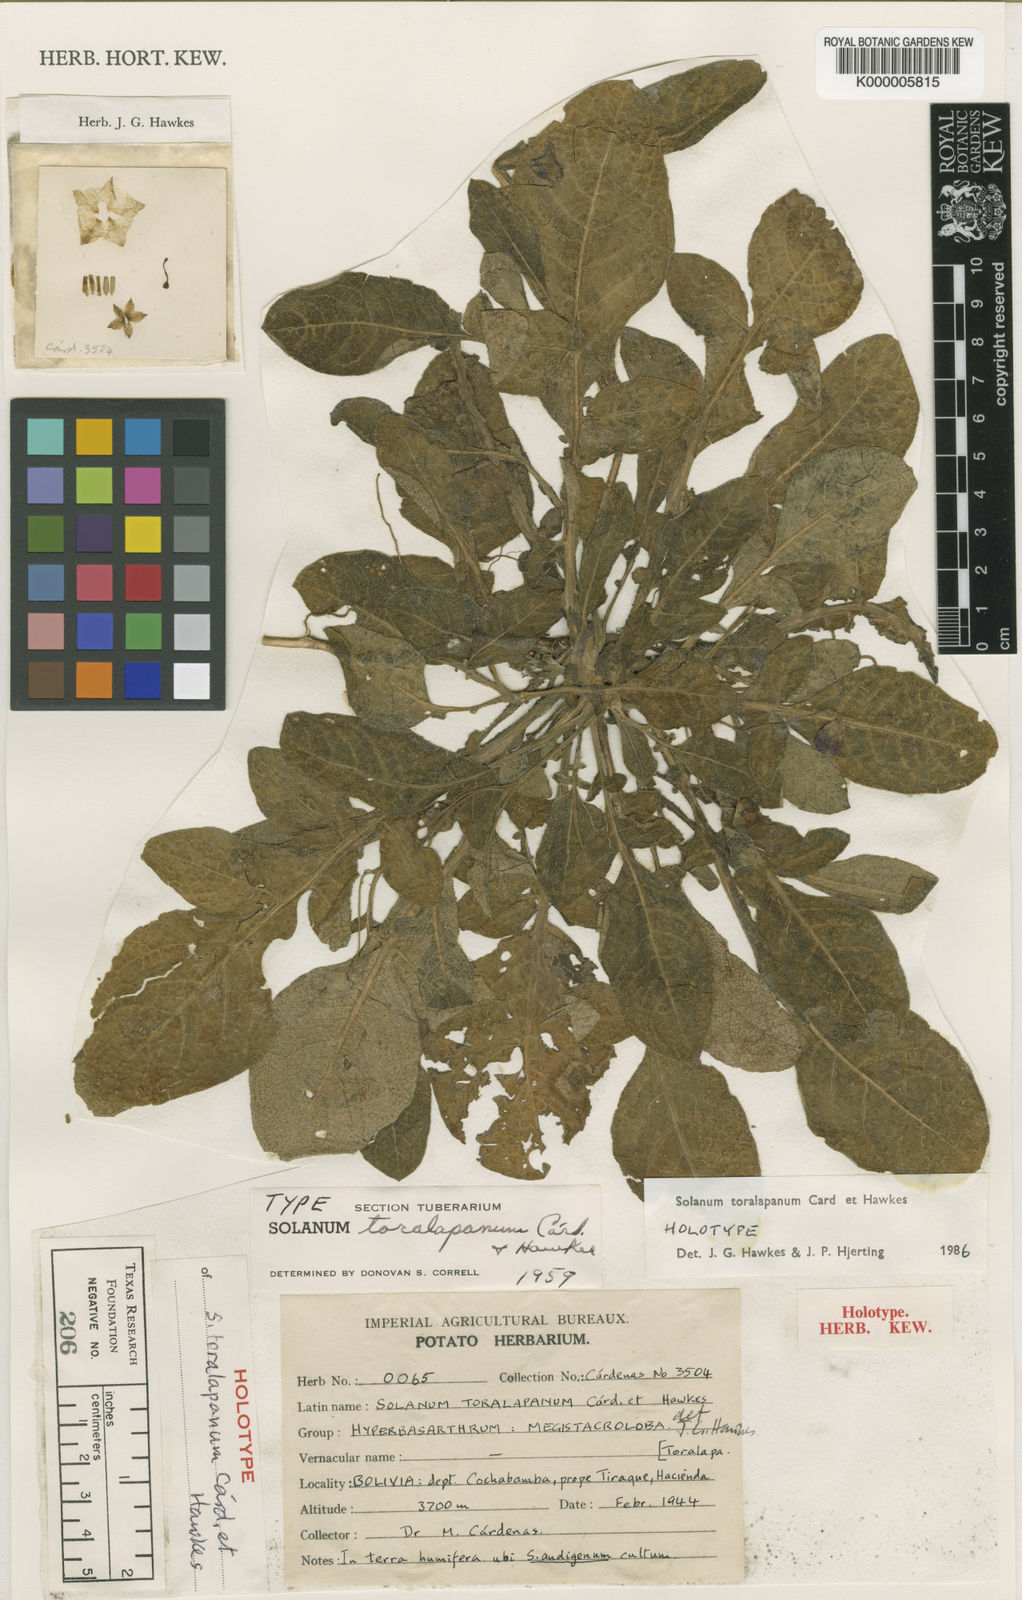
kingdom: Plantae
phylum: Tracheophyta
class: Magnoliopsida
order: Solanales
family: Solanaceae
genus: Solanum
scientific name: Solanum boliviense
